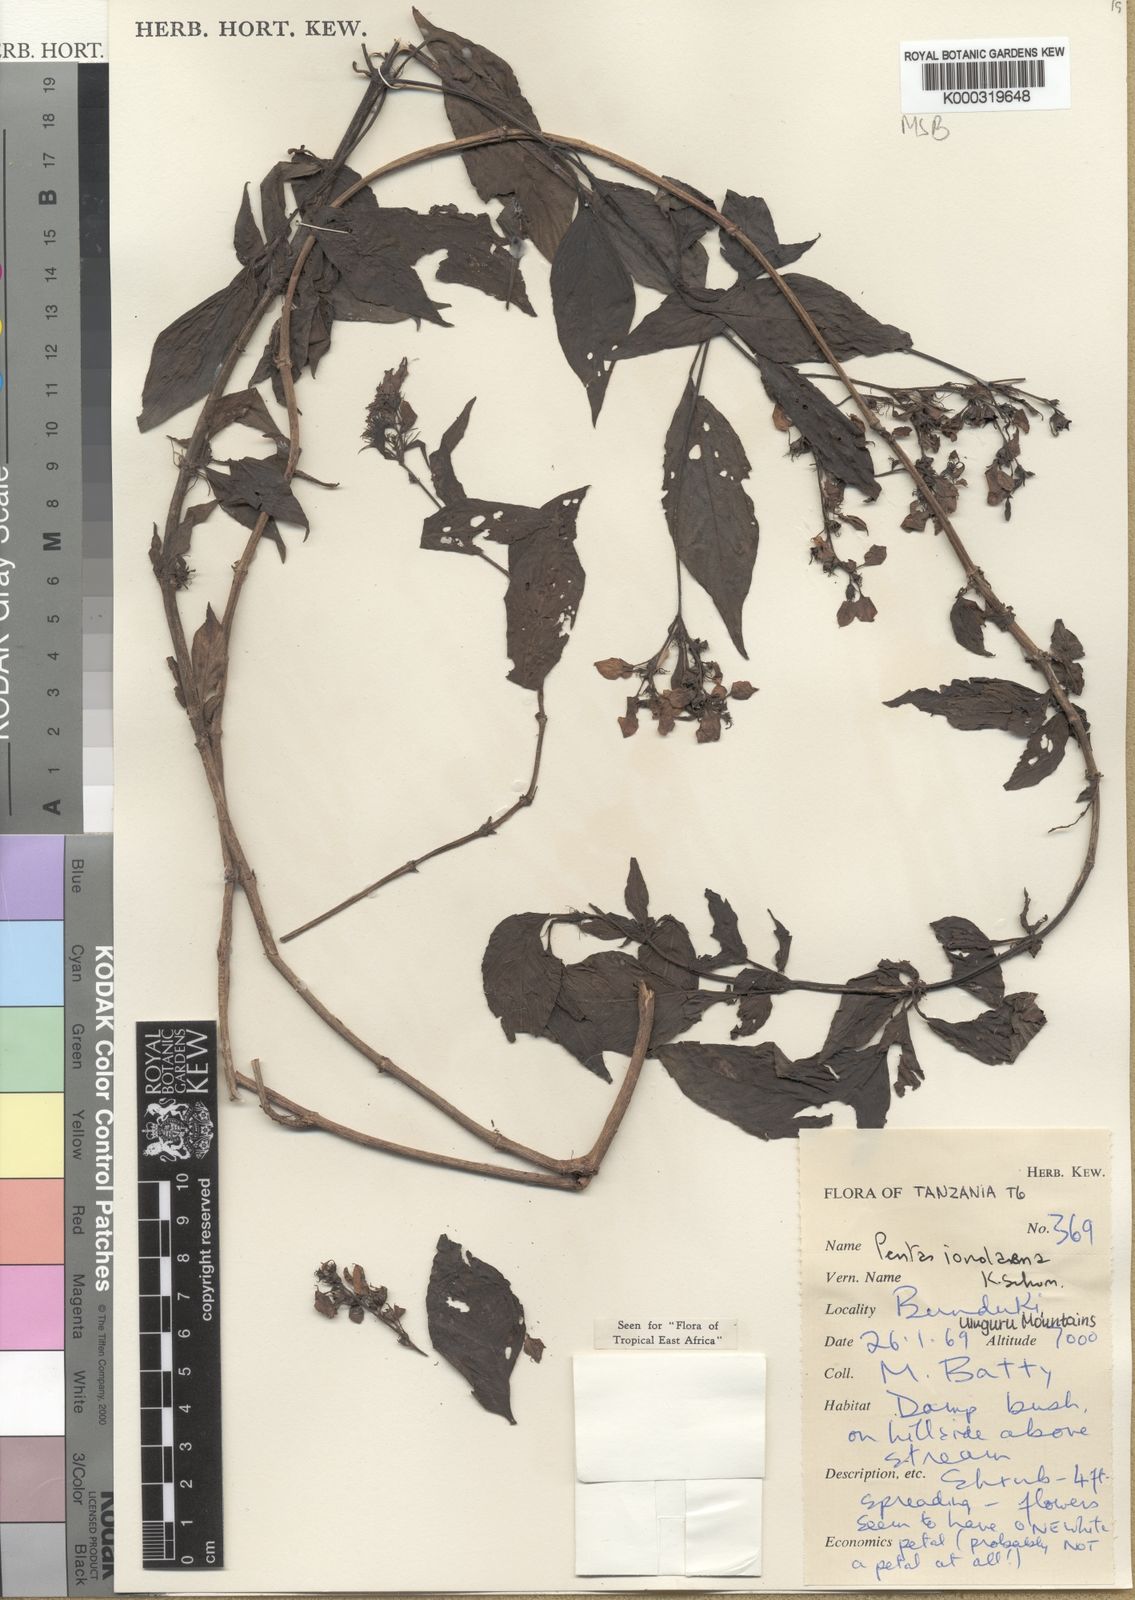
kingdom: Plantae
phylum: Tracheophyta
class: Magnoliopsida
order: Gentianales
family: Rubiaceae
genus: Phyllopentas
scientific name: Phyllopentas ionolaena
